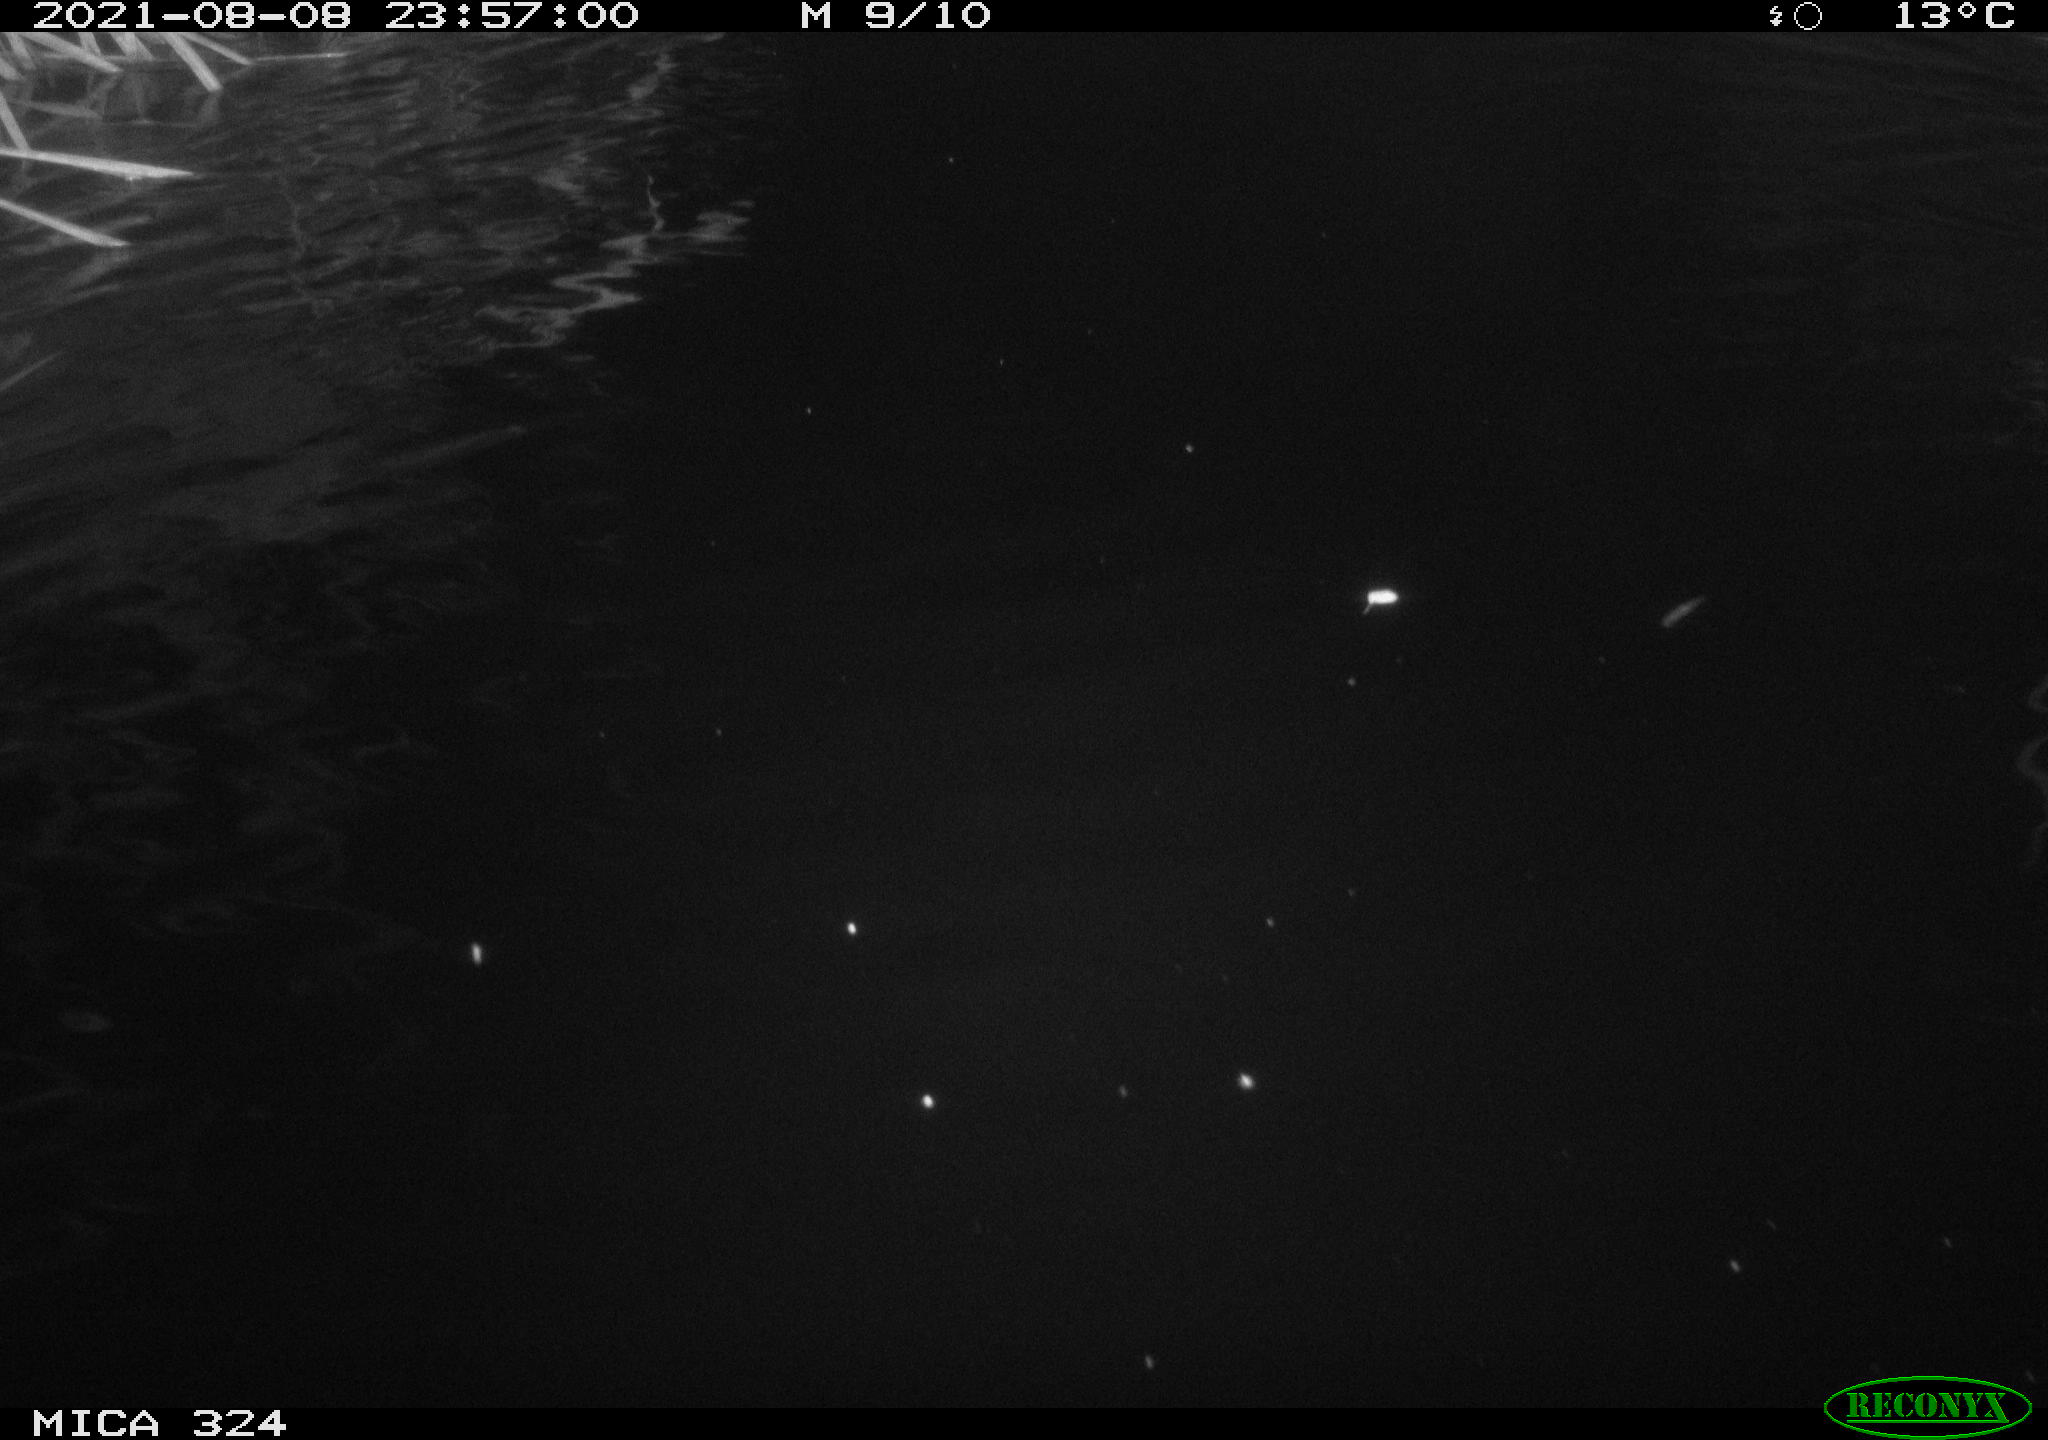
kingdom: Animalia
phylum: Chordata
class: Mammalia
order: Rodentia
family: Cricetidae
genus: Ondatra
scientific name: Ondatra zibethicus
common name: Muskrat
